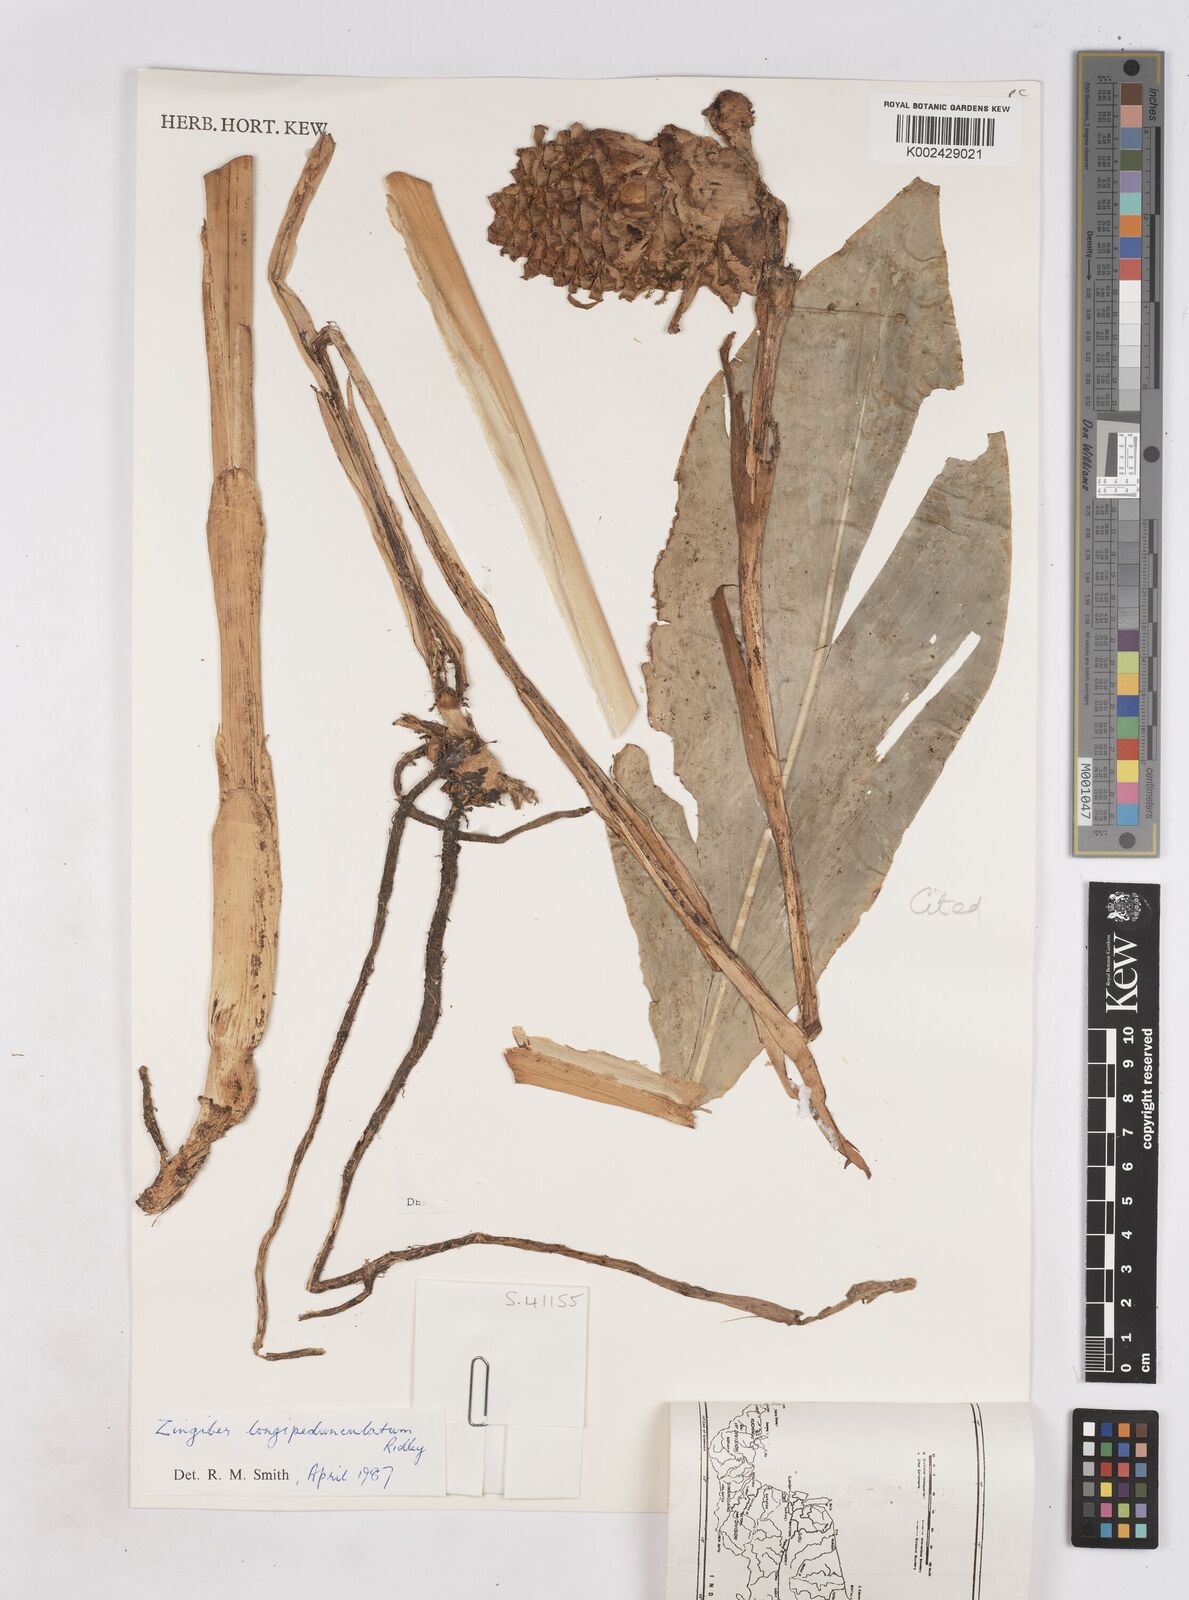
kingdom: Plantae
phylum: Tracheophyta
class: Liliopsida
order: Zingiberales
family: Zingiberaceae
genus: Zingiber
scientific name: Zingiber longipedunculatum
